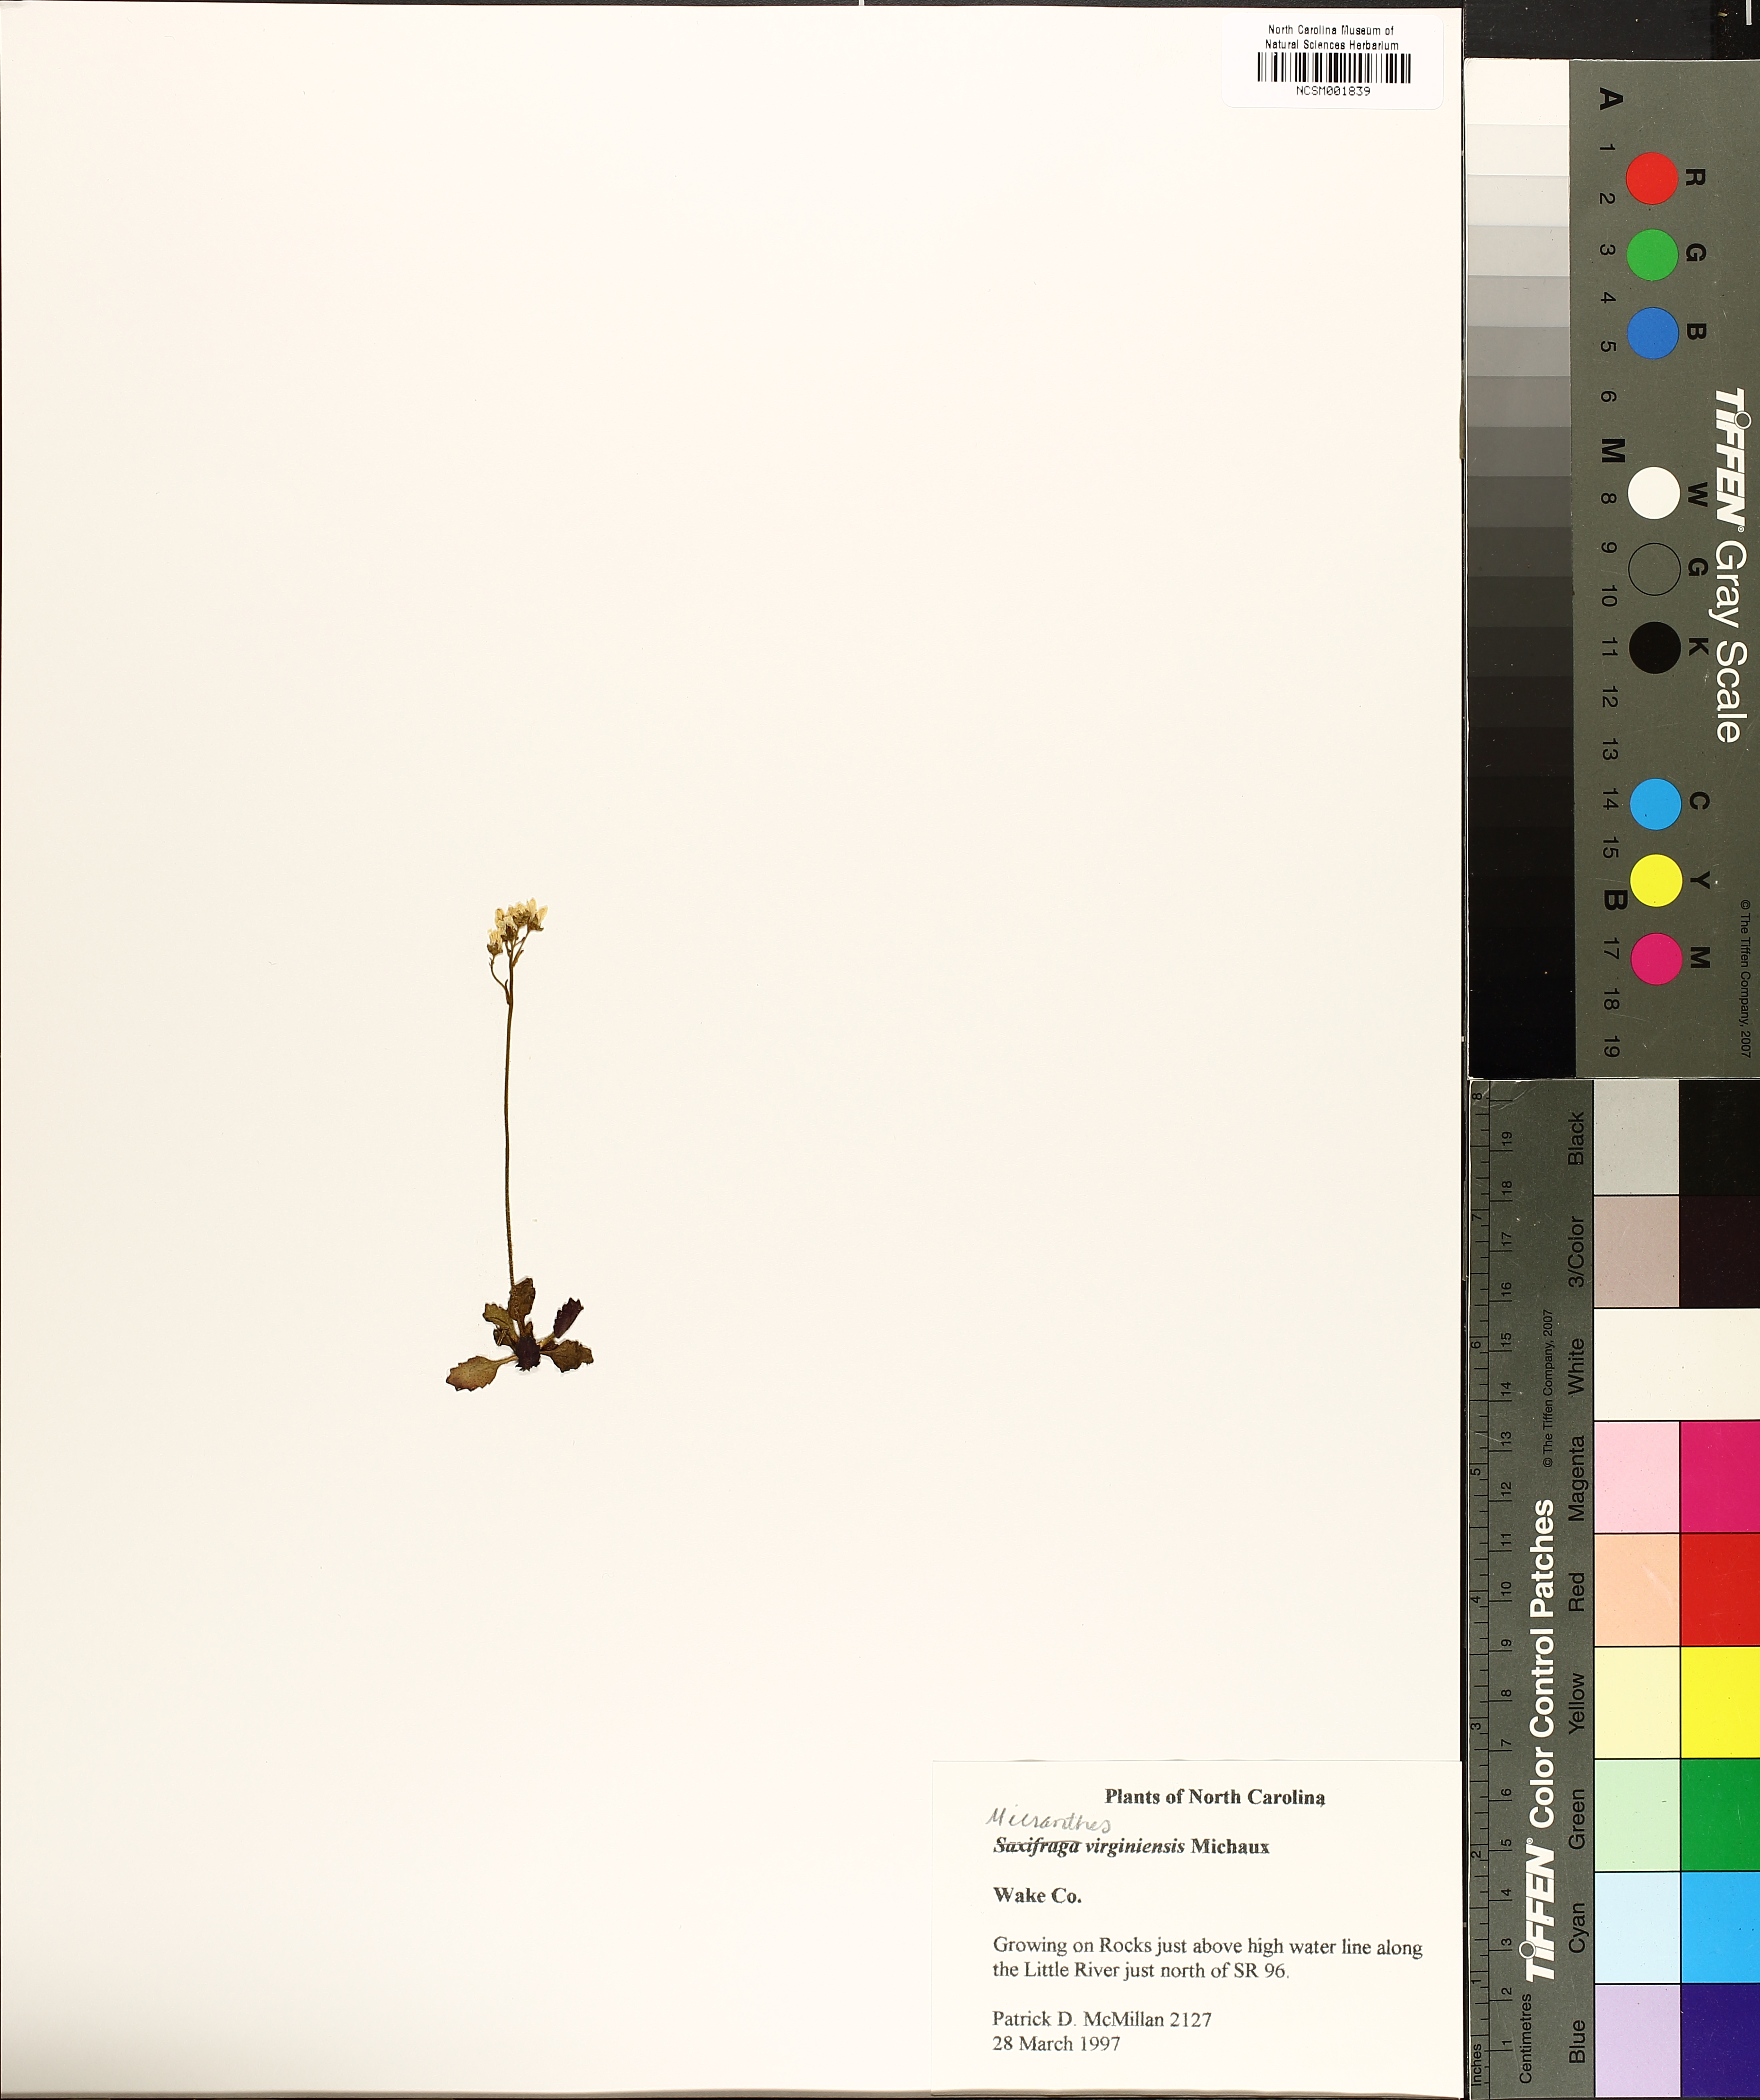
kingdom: Plantae
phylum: Tracheophyta
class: Magnoliopsida
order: Saxifragales
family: Saxifragaceae
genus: Micranthes
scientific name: Micranthes virginiensis
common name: Early saxifrage
